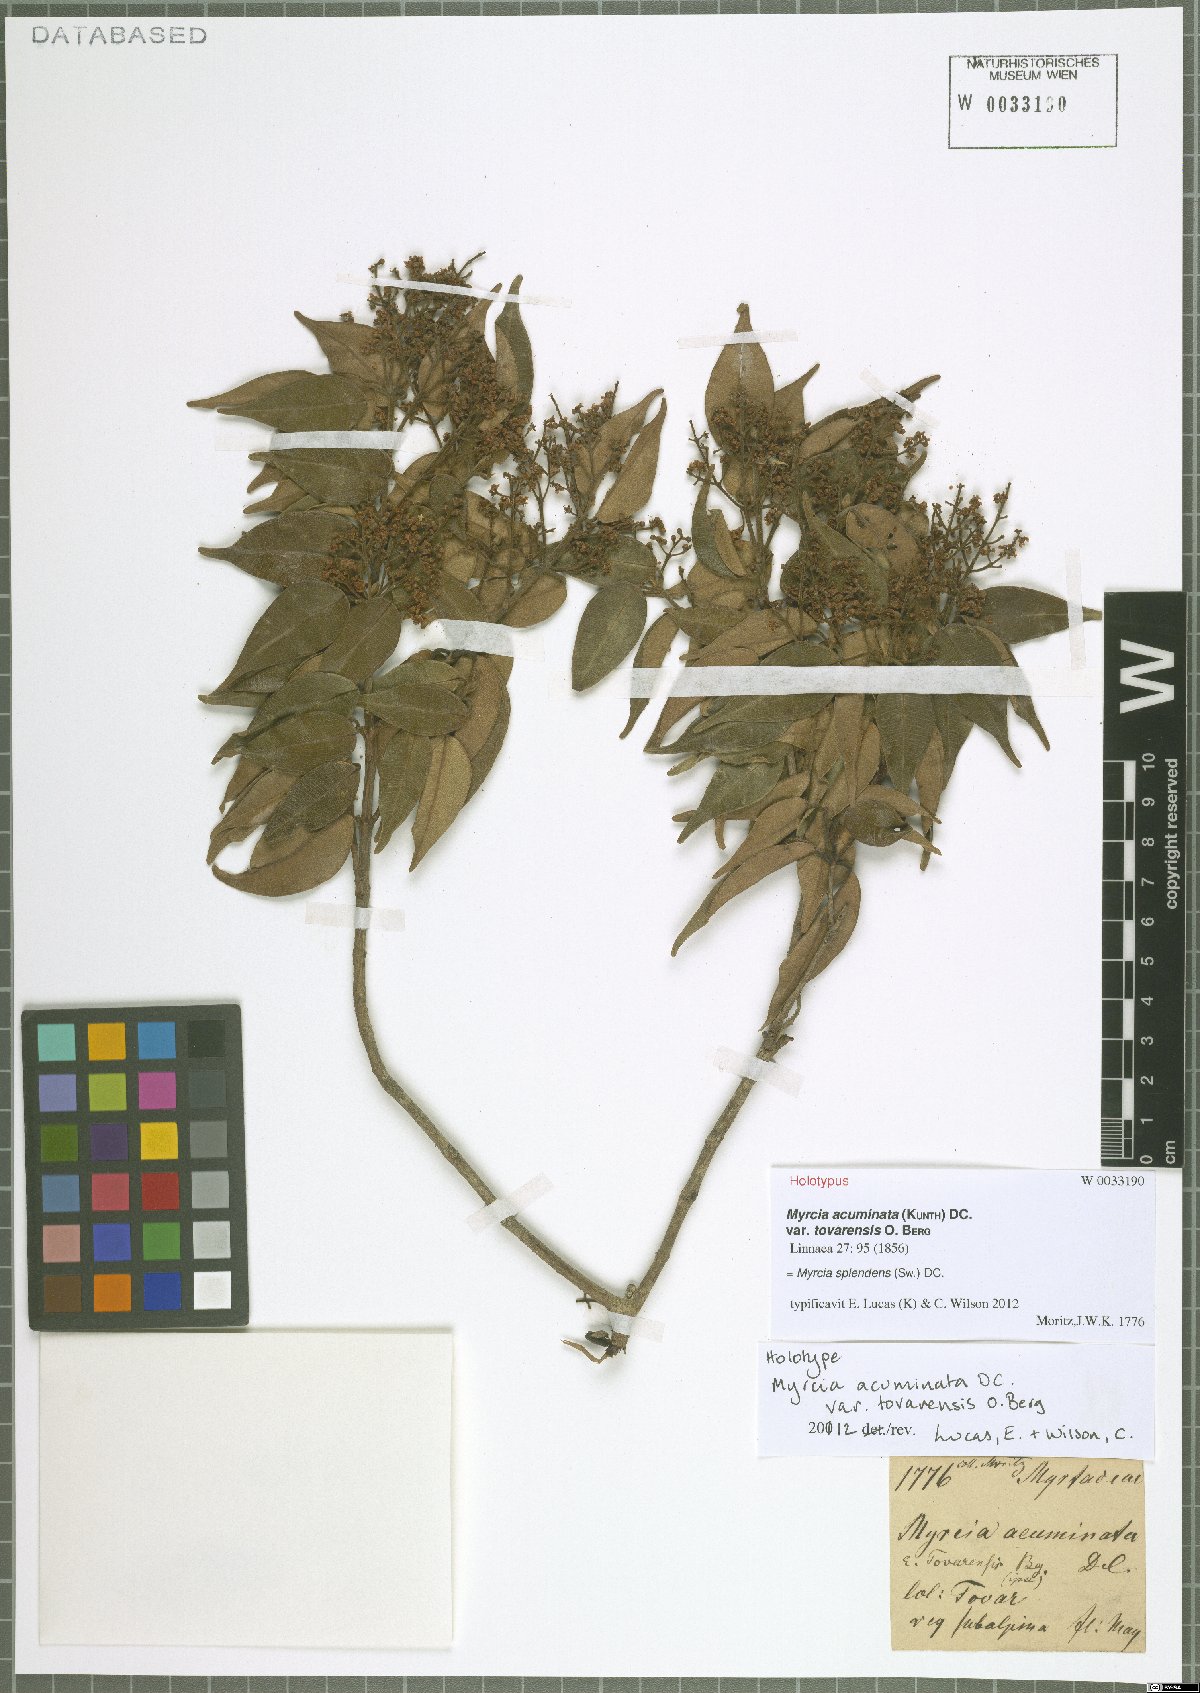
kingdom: Plantae
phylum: Tracheophyta
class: Magnoliopsida
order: Myrtales
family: Myrtaceae
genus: Myrcia
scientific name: Myrcia splendens
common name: Surinam cherry
